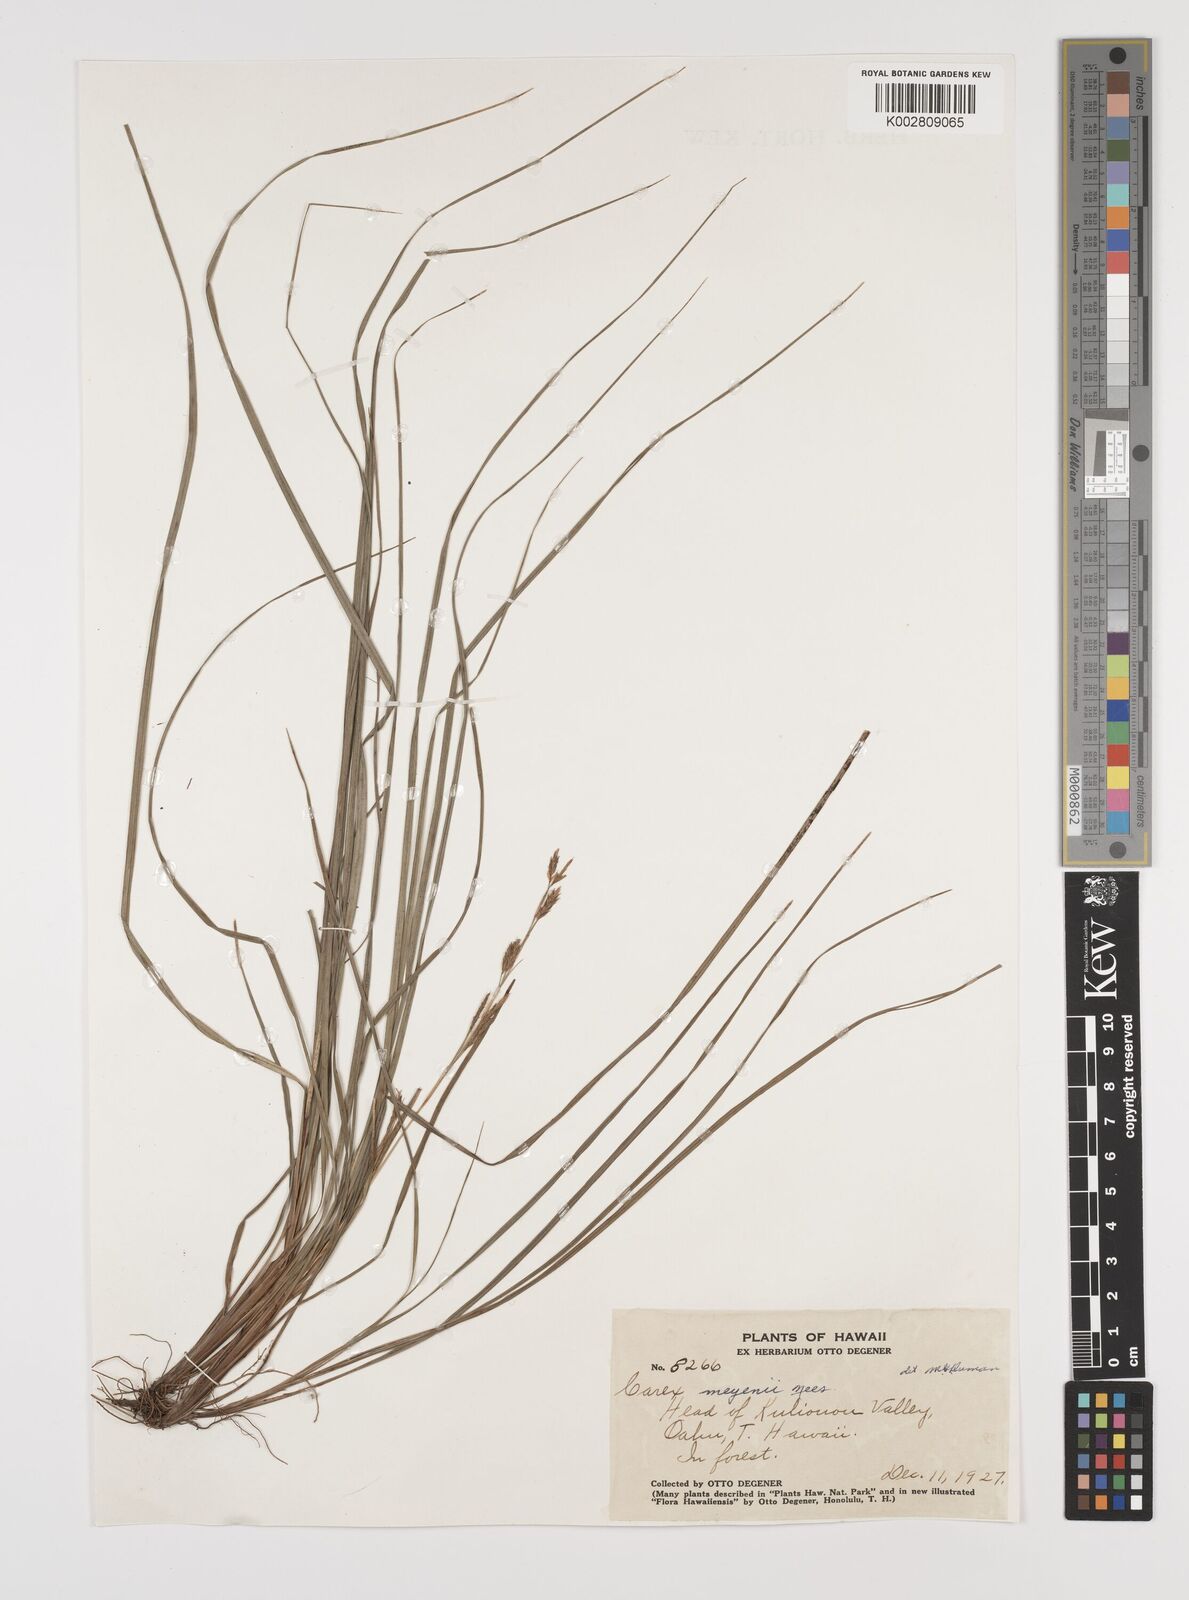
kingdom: Plantae
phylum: Tracheophyta
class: Liliopsida
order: Poales
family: Cyperaceae
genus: Carex
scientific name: Carex brunnea
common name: Greater brown sedge
